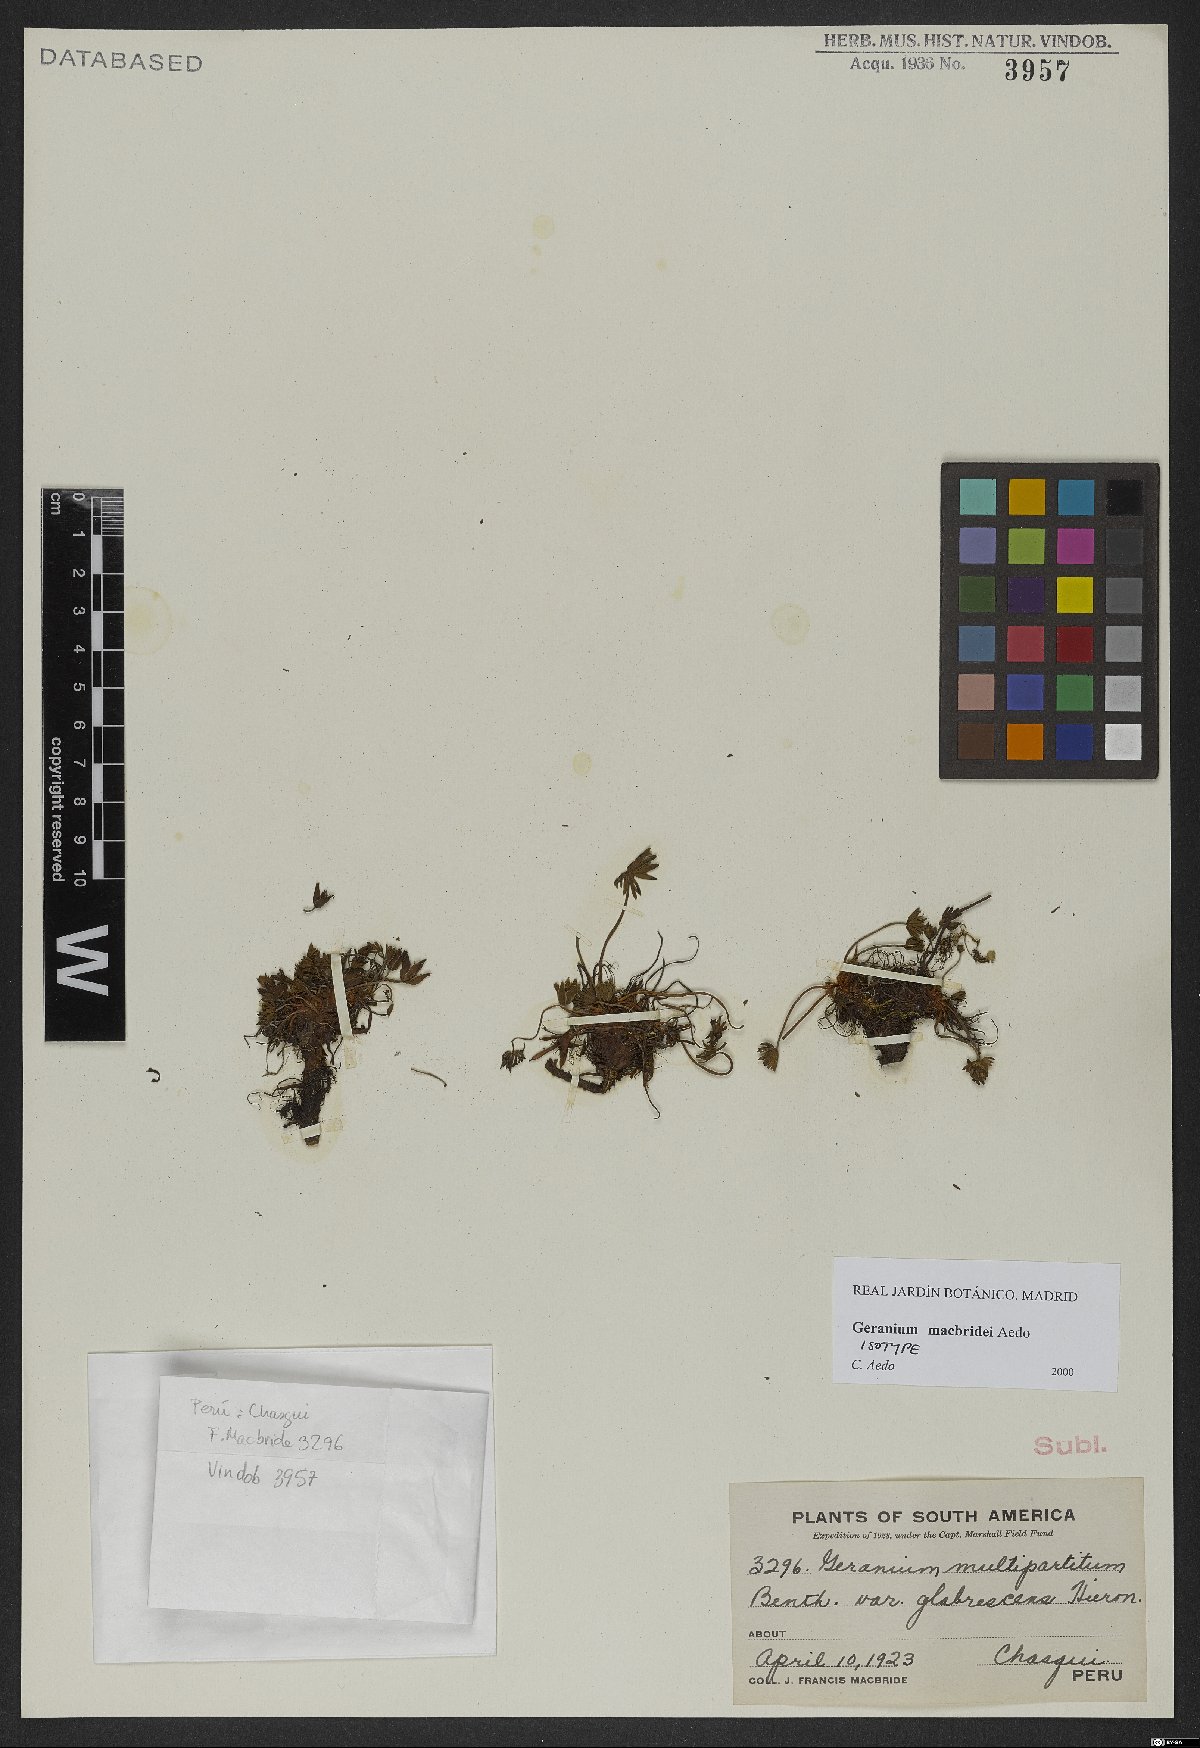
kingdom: Plantae
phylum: Tracheophyta
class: Magnoliopsida
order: Geraniales
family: Geraniaceae
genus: Geranium
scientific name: Geranium macbridei
